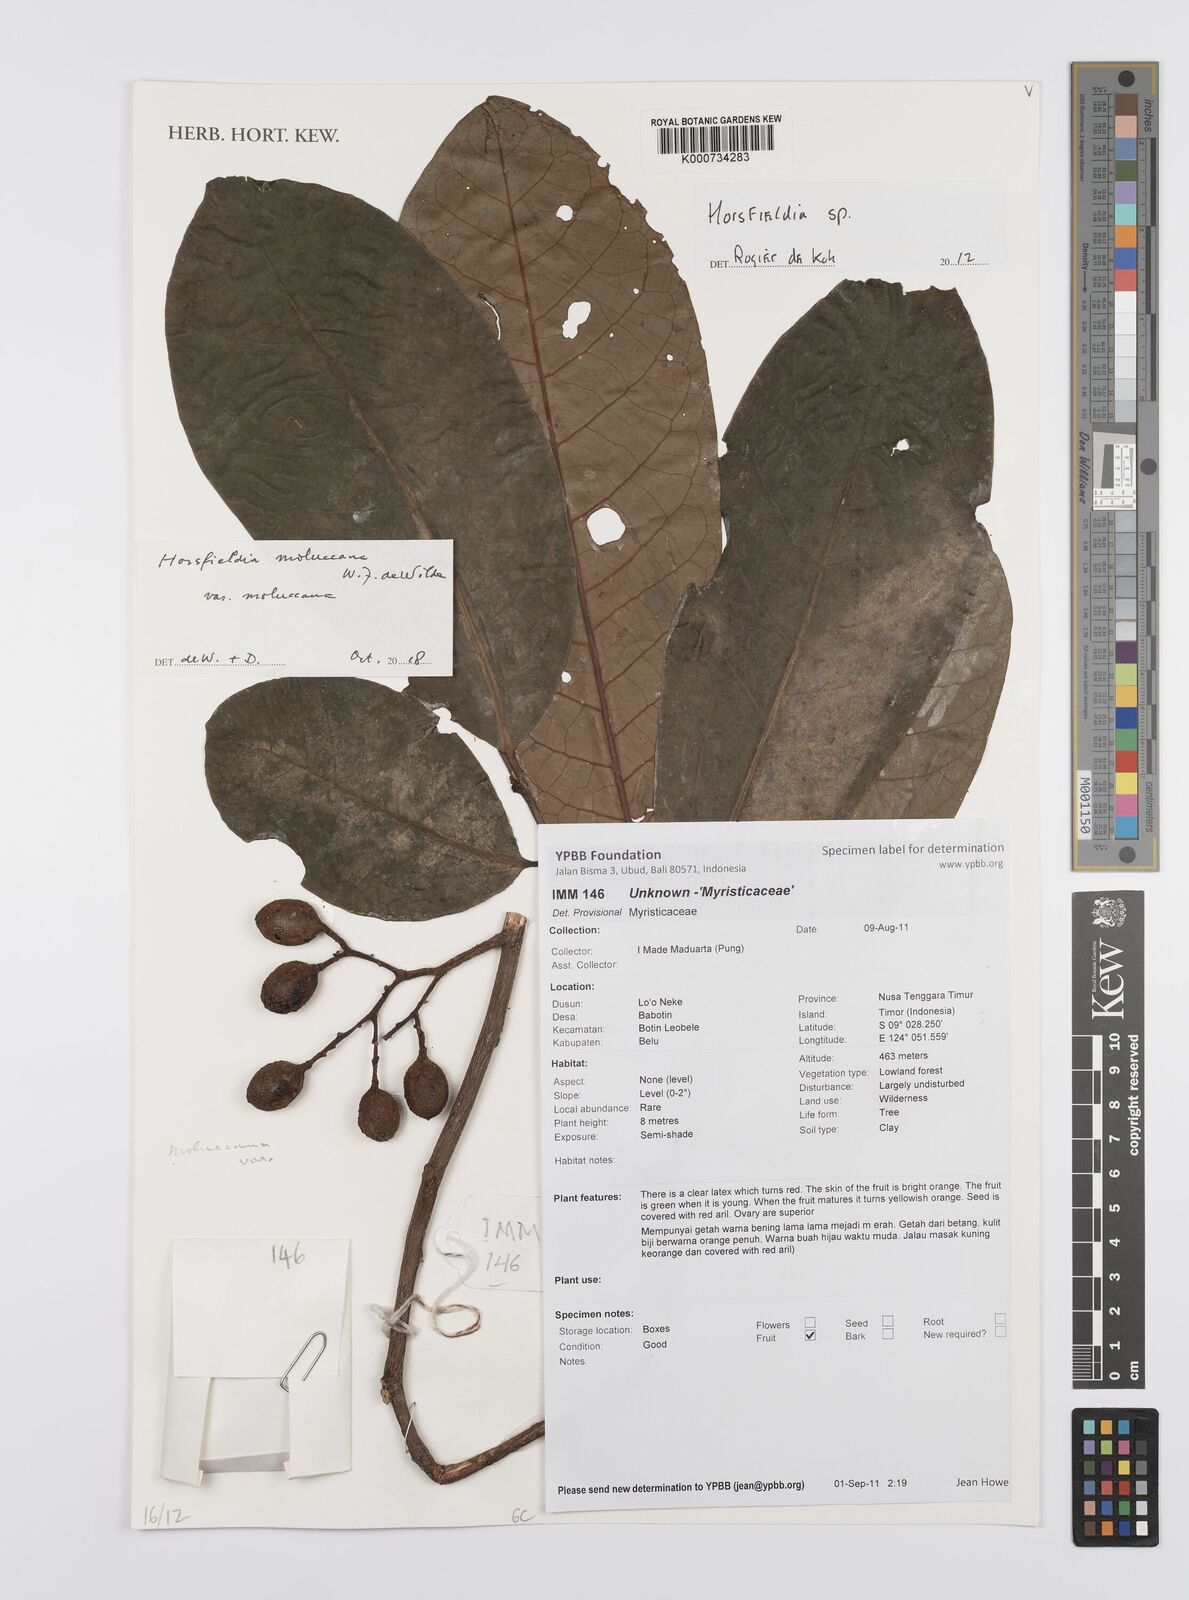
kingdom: Plantae
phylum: Tracheophyta
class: Magnoliopsida
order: Magnoliales
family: Myristicaceae
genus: Horsfieldia
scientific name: Horsfieldia
